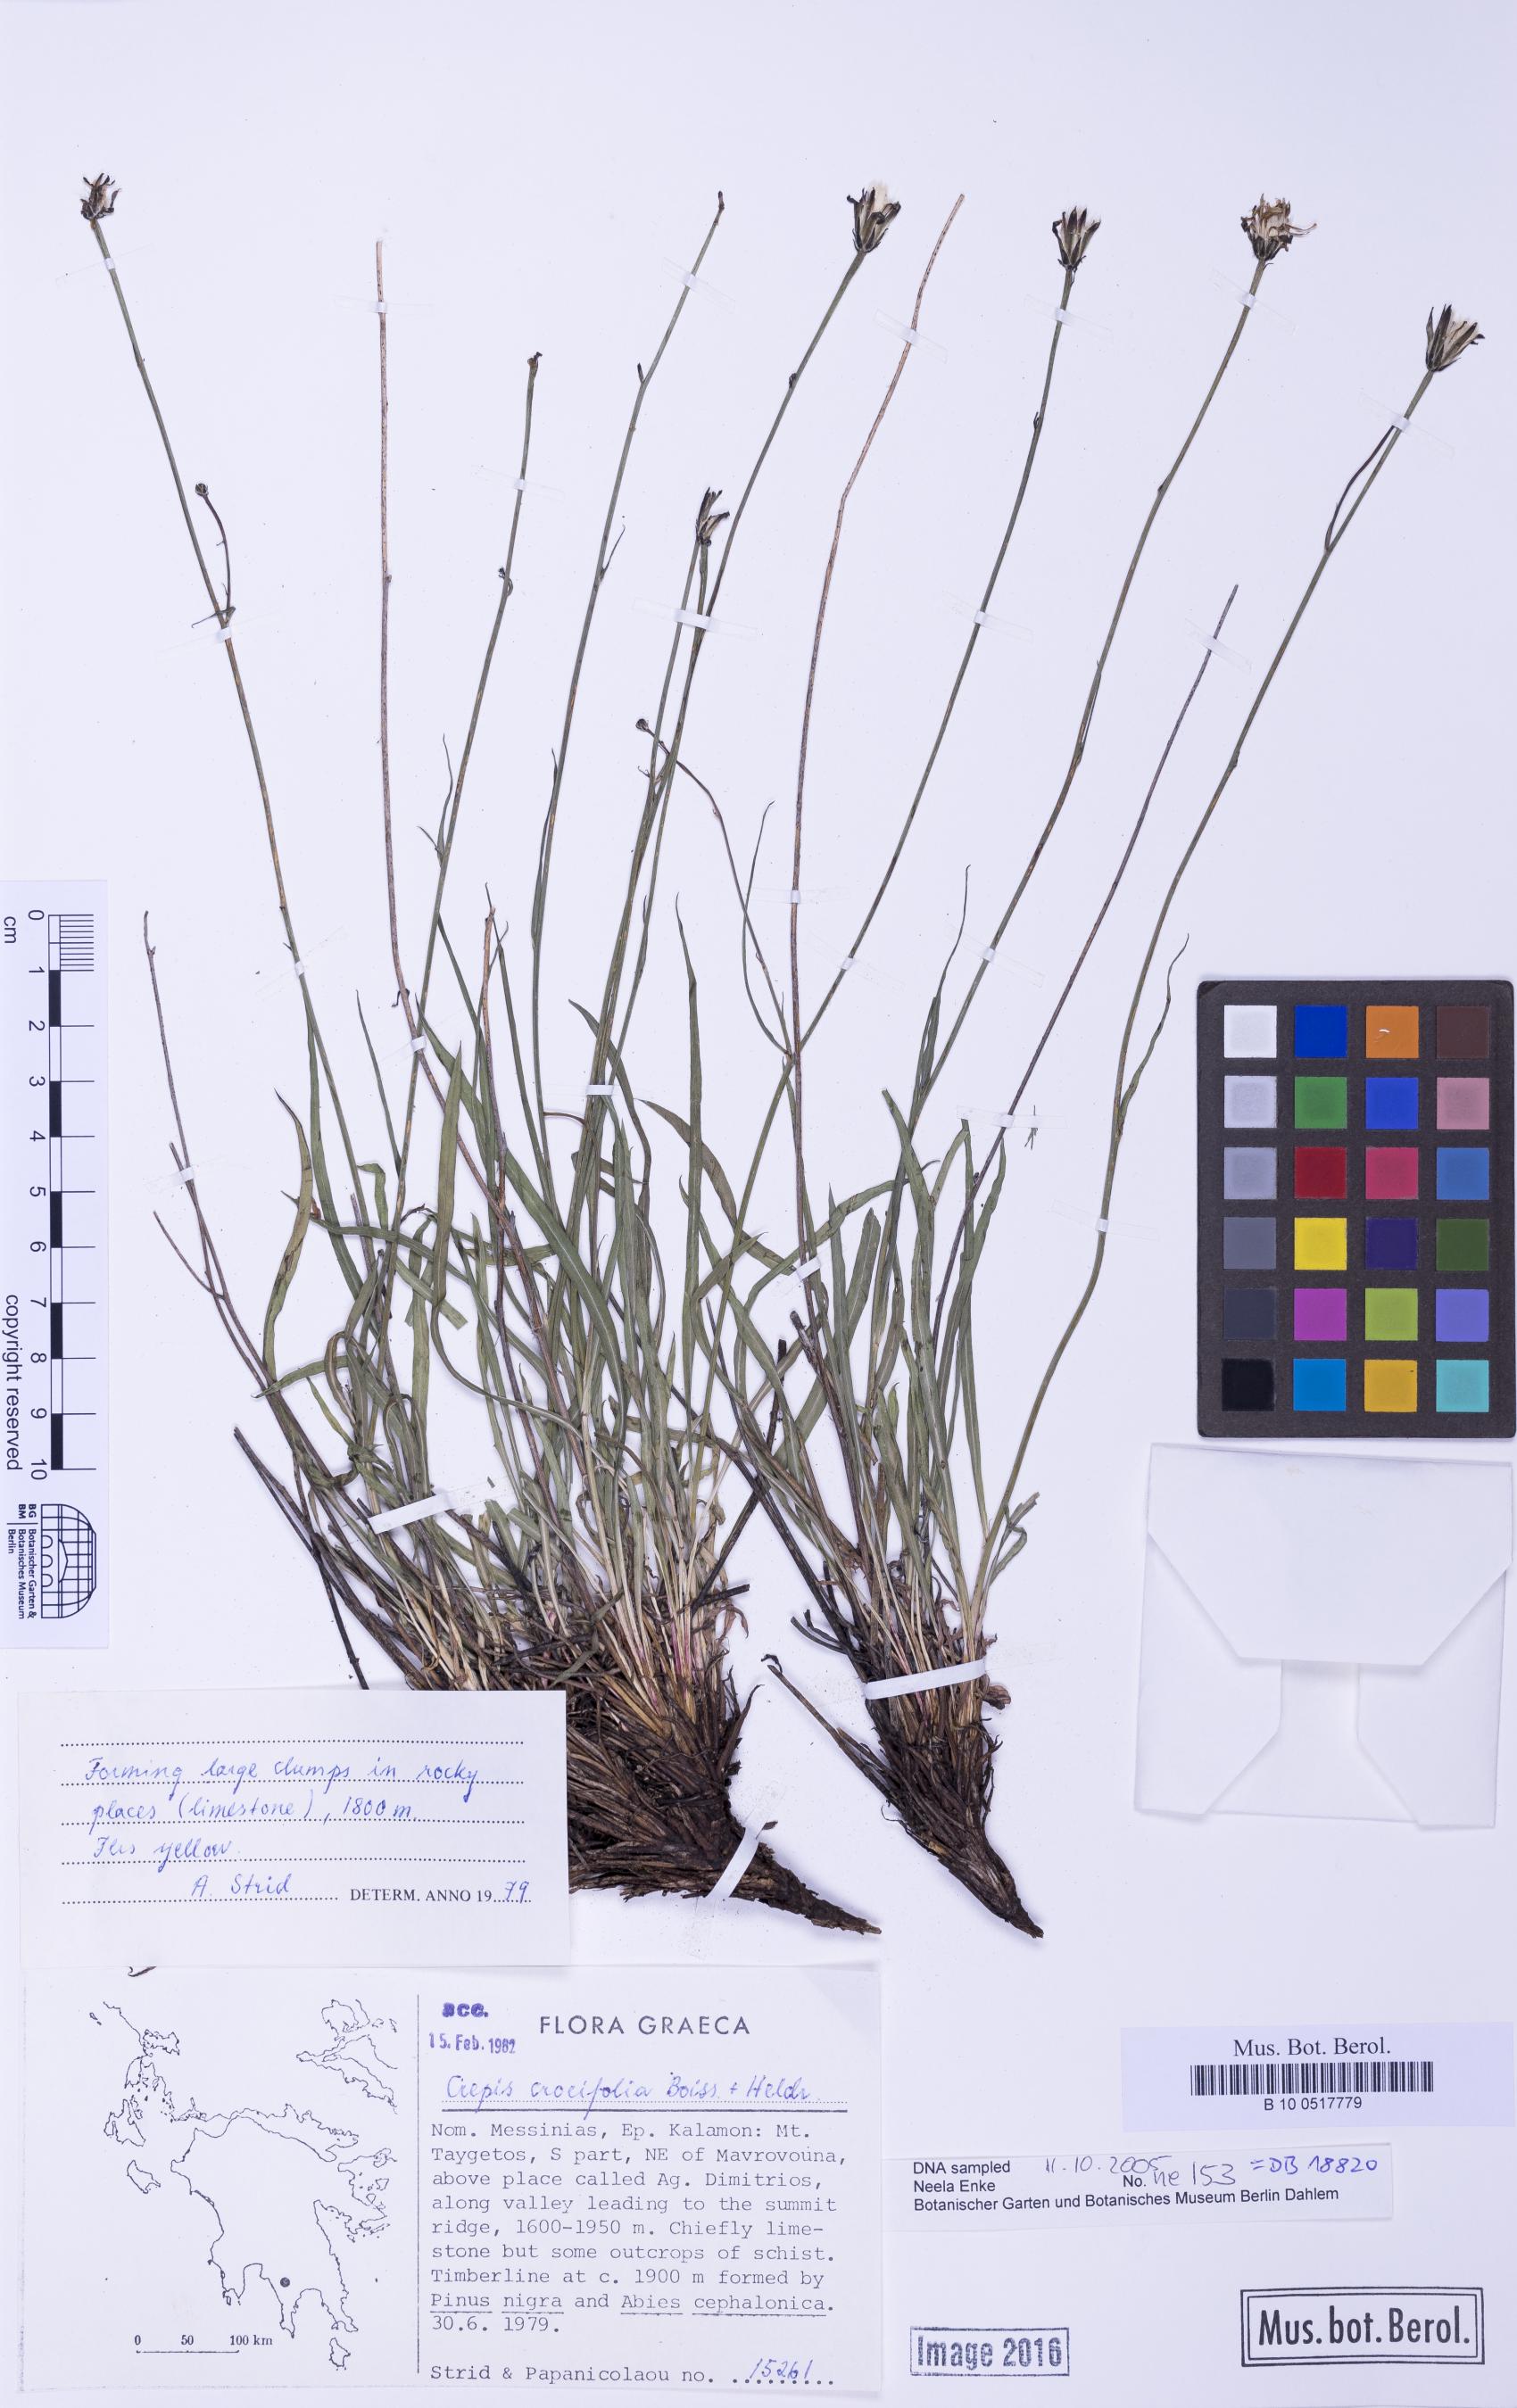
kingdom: Plantae
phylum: Tracheophyta
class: Magnoliopsida
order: Asterales
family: Asteraceae
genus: Phitosia
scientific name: Phitosia crocifolia
